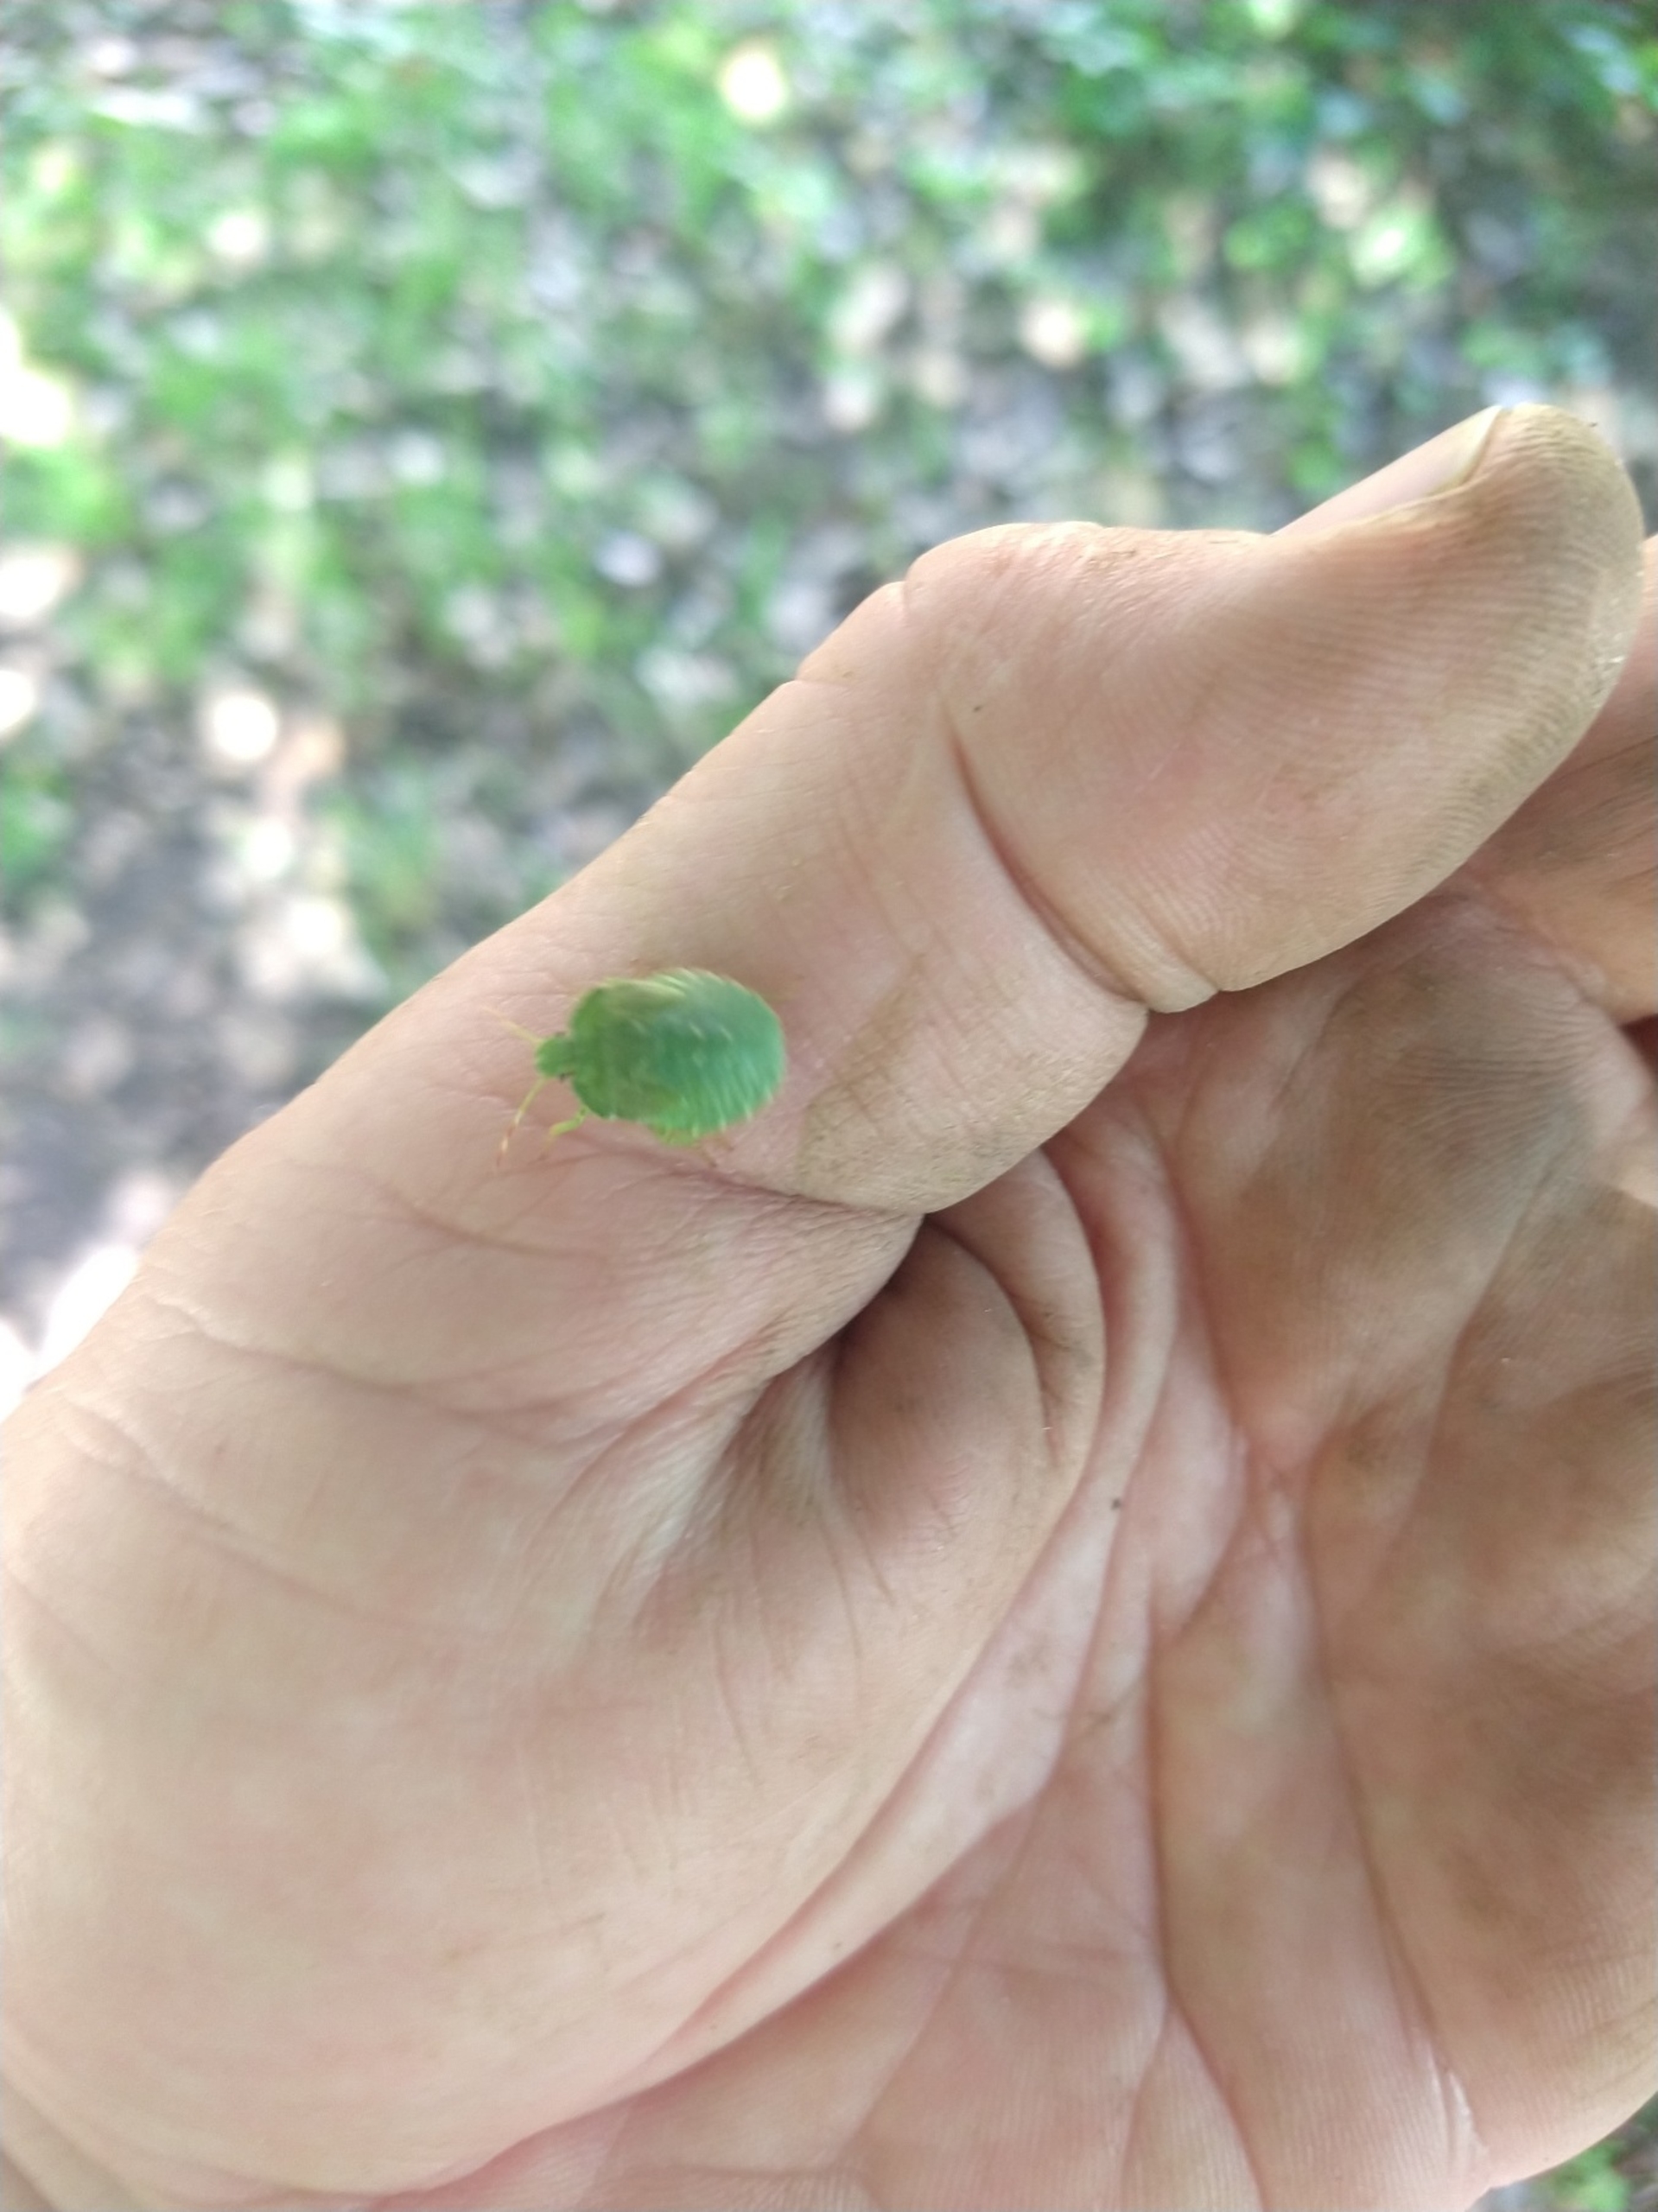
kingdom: Animalia
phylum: Arthropoda
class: Insecta
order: Hemiptera
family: Pentatomidae
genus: Palomena
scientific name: Palomena prasina
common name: Grøn bredtæge
